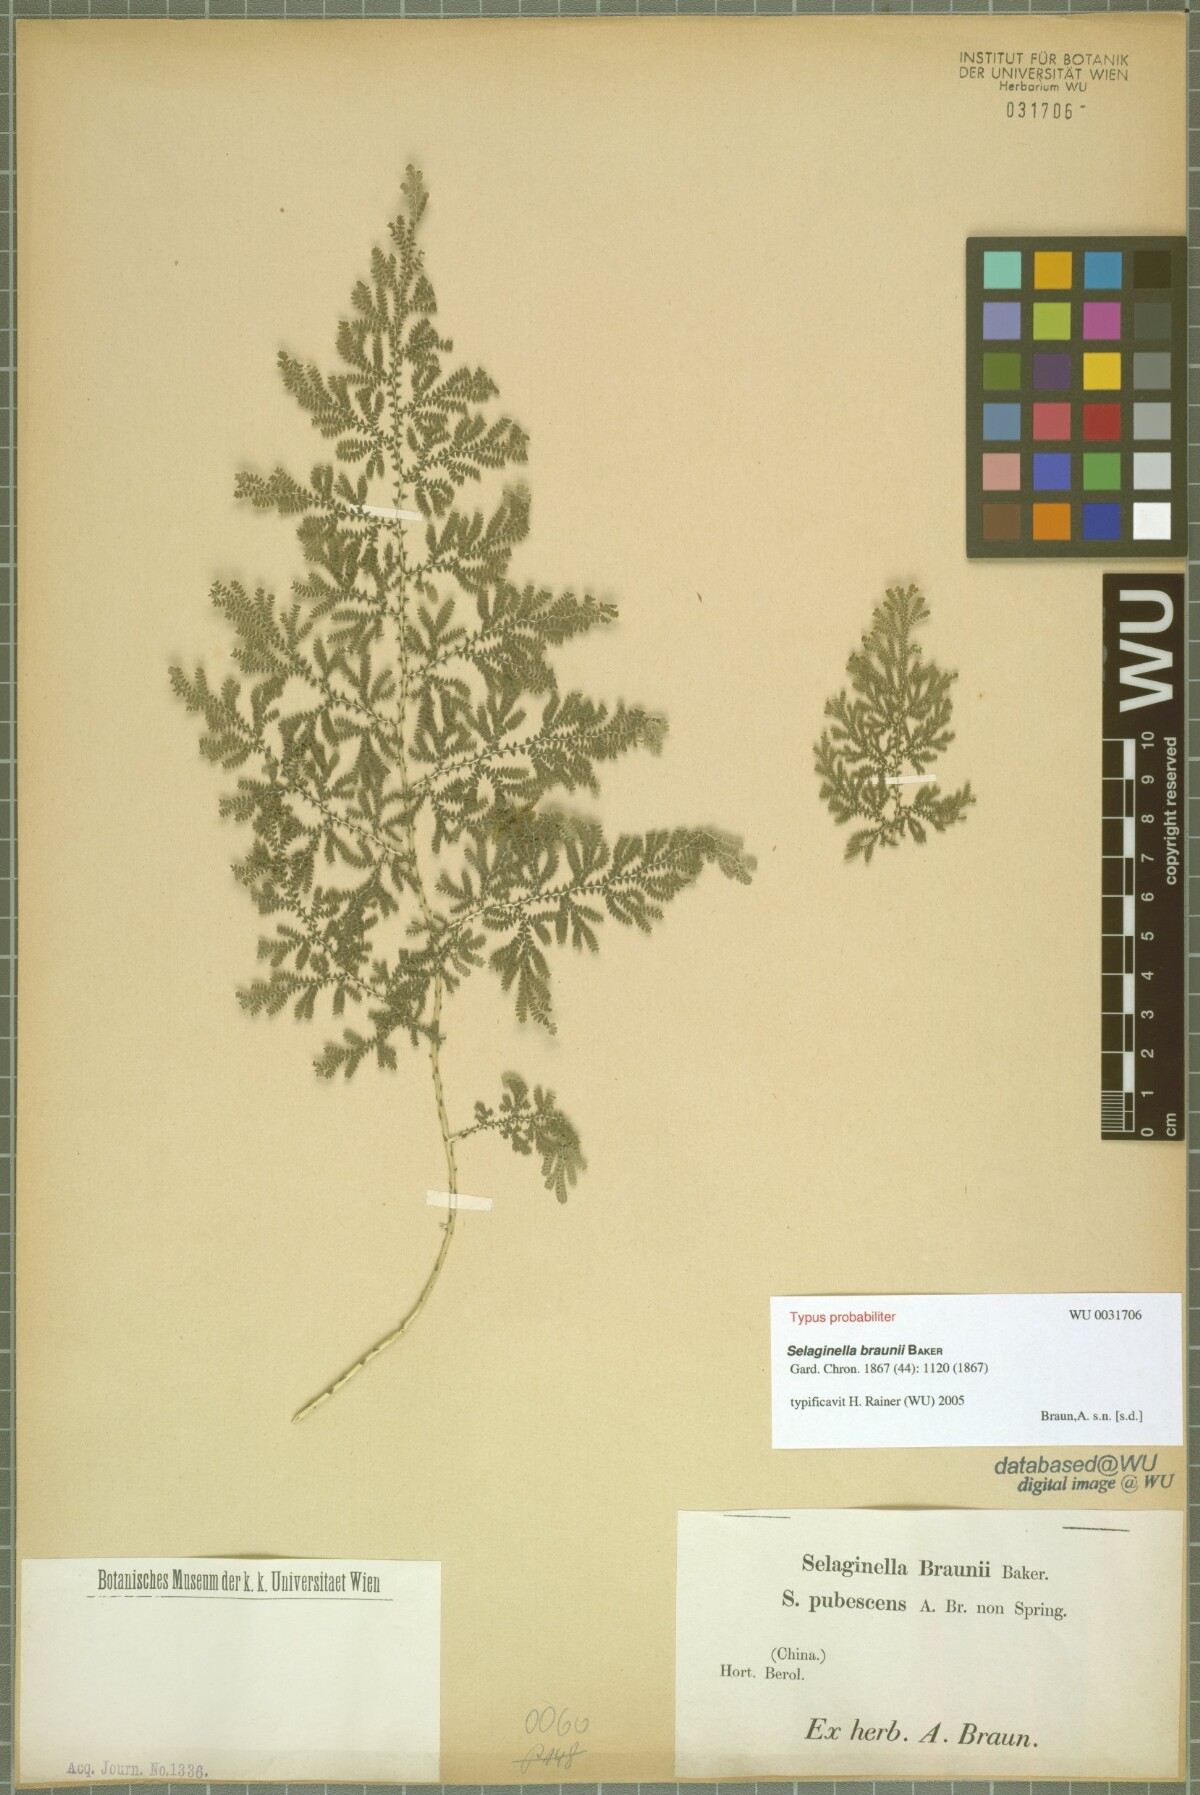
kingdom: Plantae
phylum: Tracheophyta
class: Lycopodiopsida
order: Selaginellales
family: Selaginellaceae
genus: Selaginella
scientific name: Selaginella braunii
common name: Braun's spikemoss
